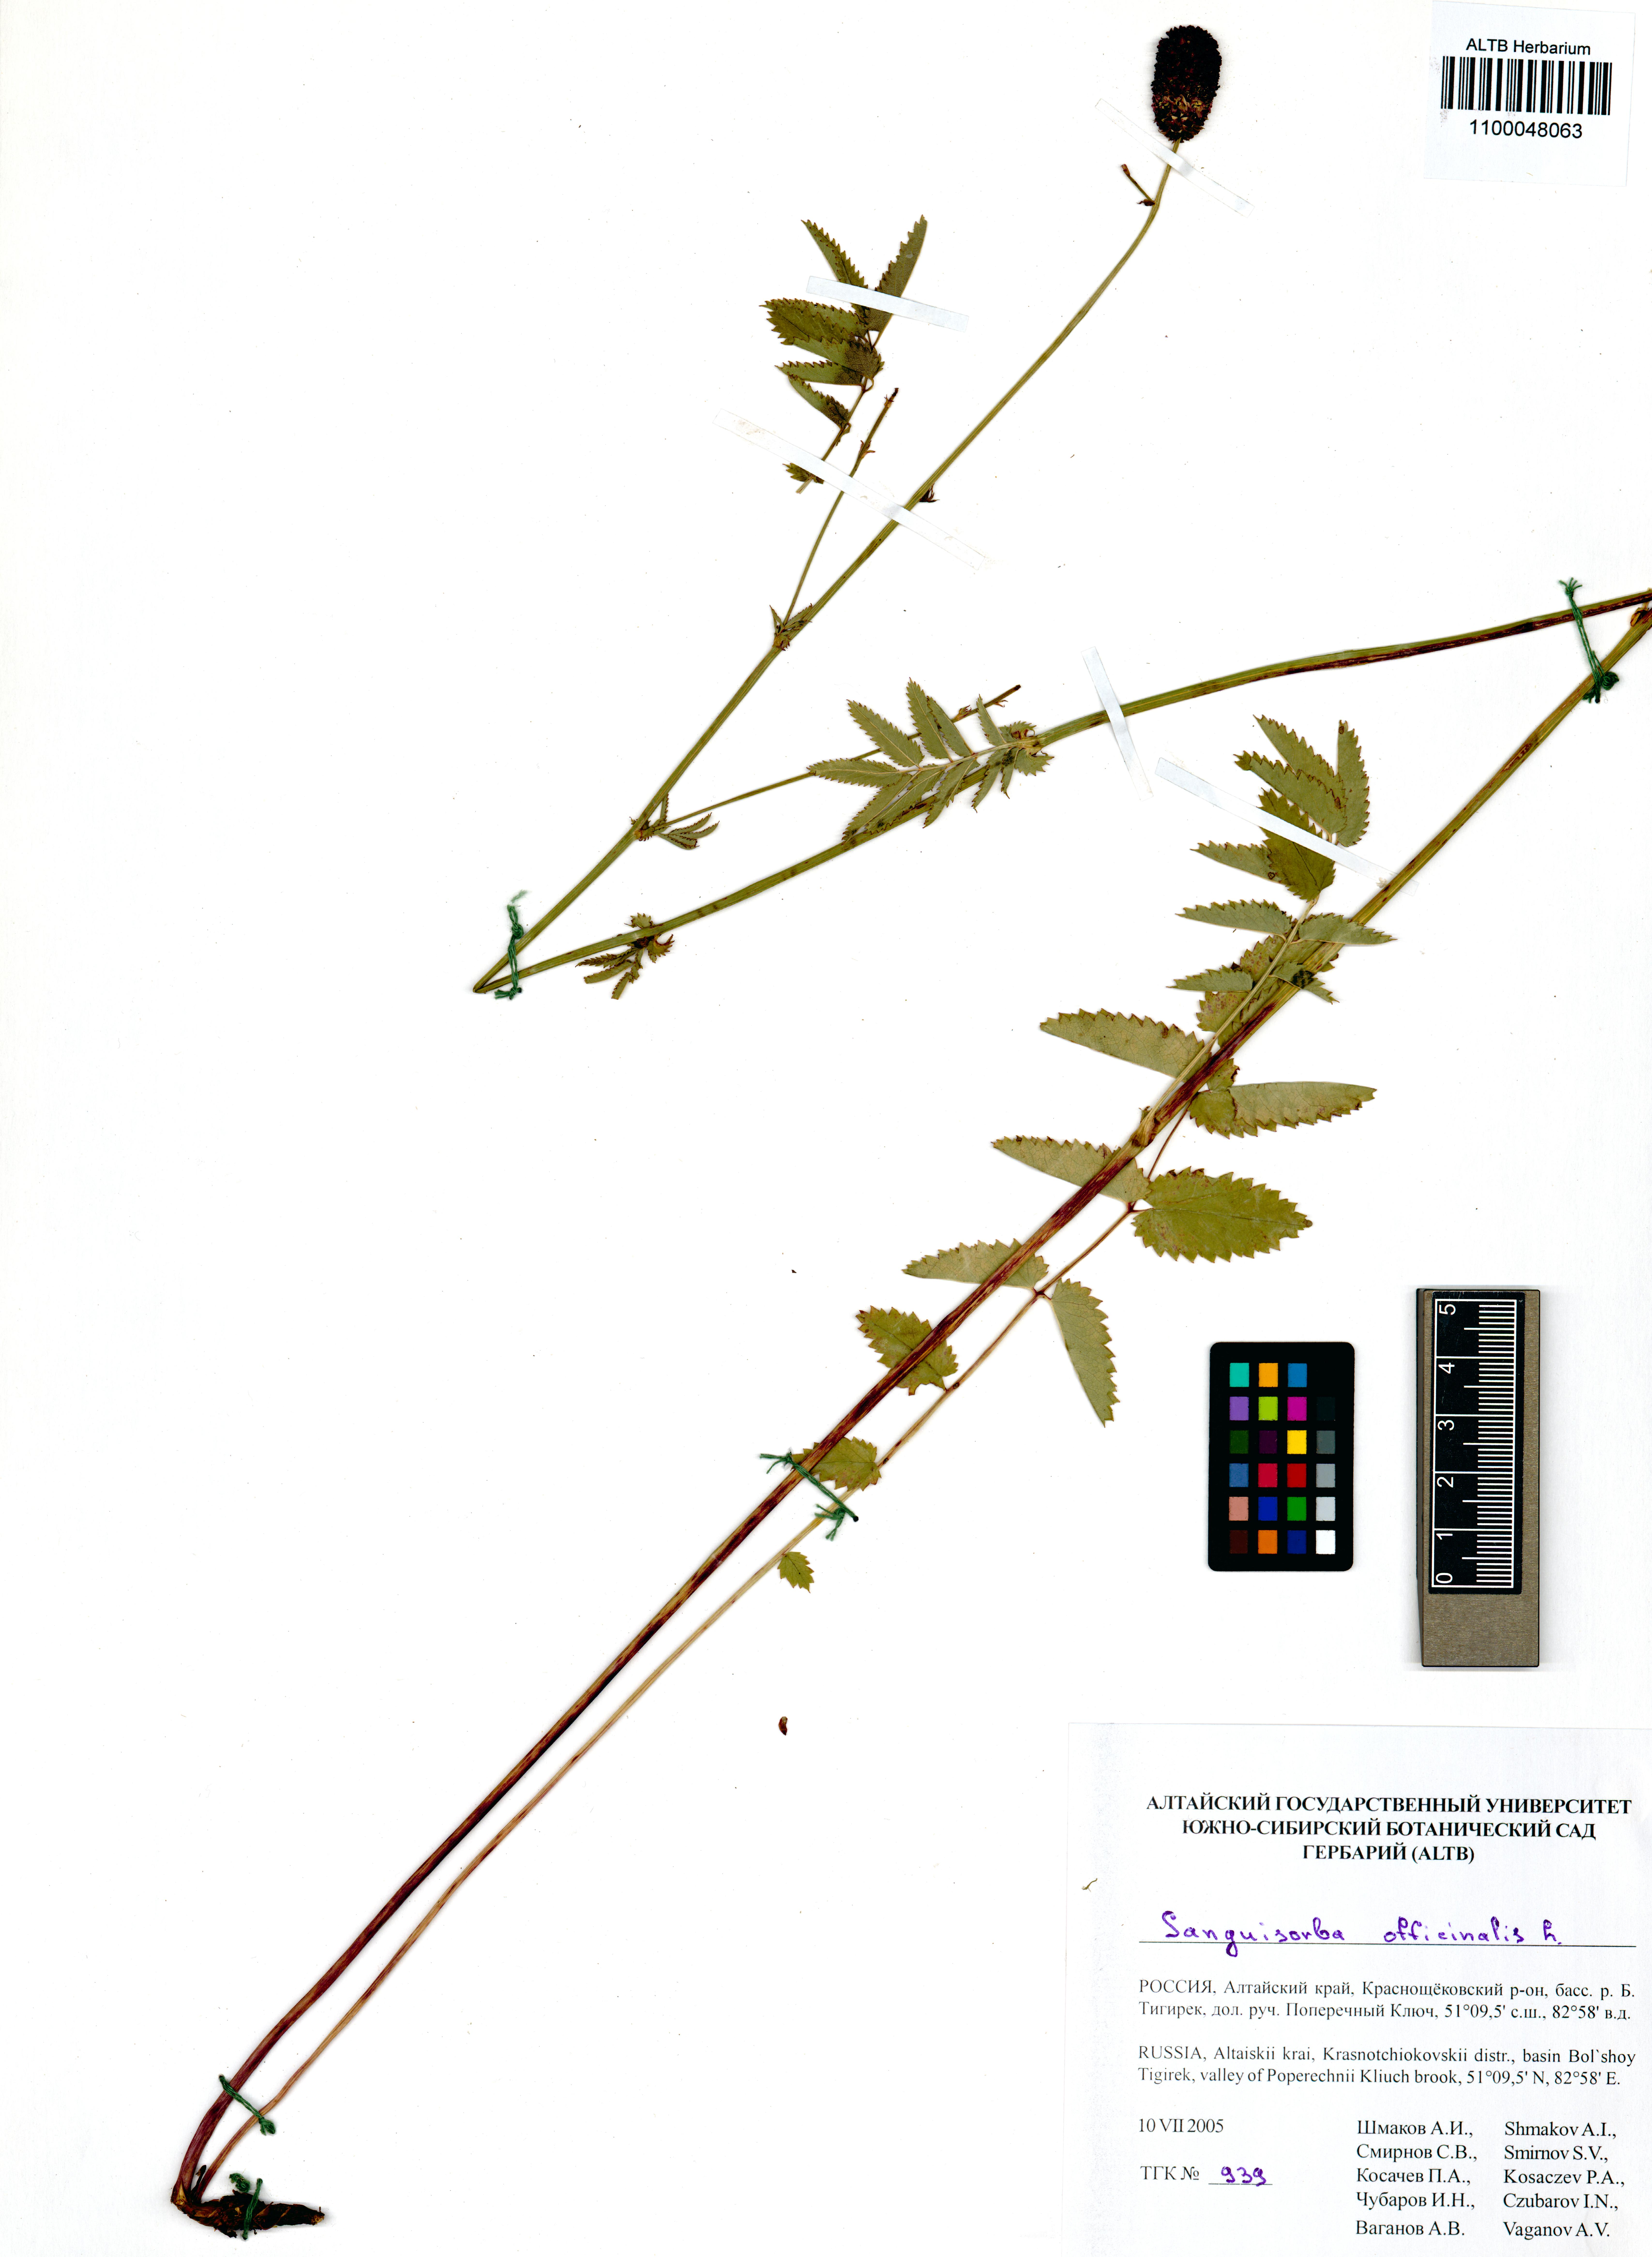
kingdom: Plantae
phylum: Tracheophyta
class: Magnoliopsida
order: Rosales
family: Rosaceae
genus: Sanguisorba
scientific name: Sanguisorba officinalis
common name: Great burnet
